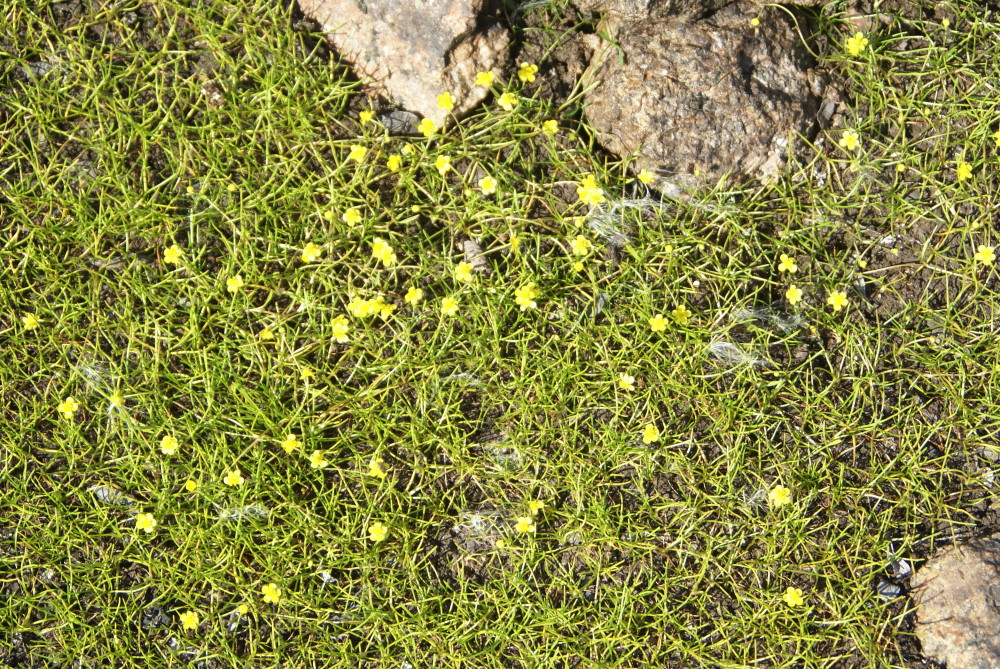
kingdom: Plantae
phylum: Tracheophyta
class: Magnoliopsida
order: Ranunculales
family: Ranunculaceae
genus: Ranunculus
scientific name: Ranunculus reptans
